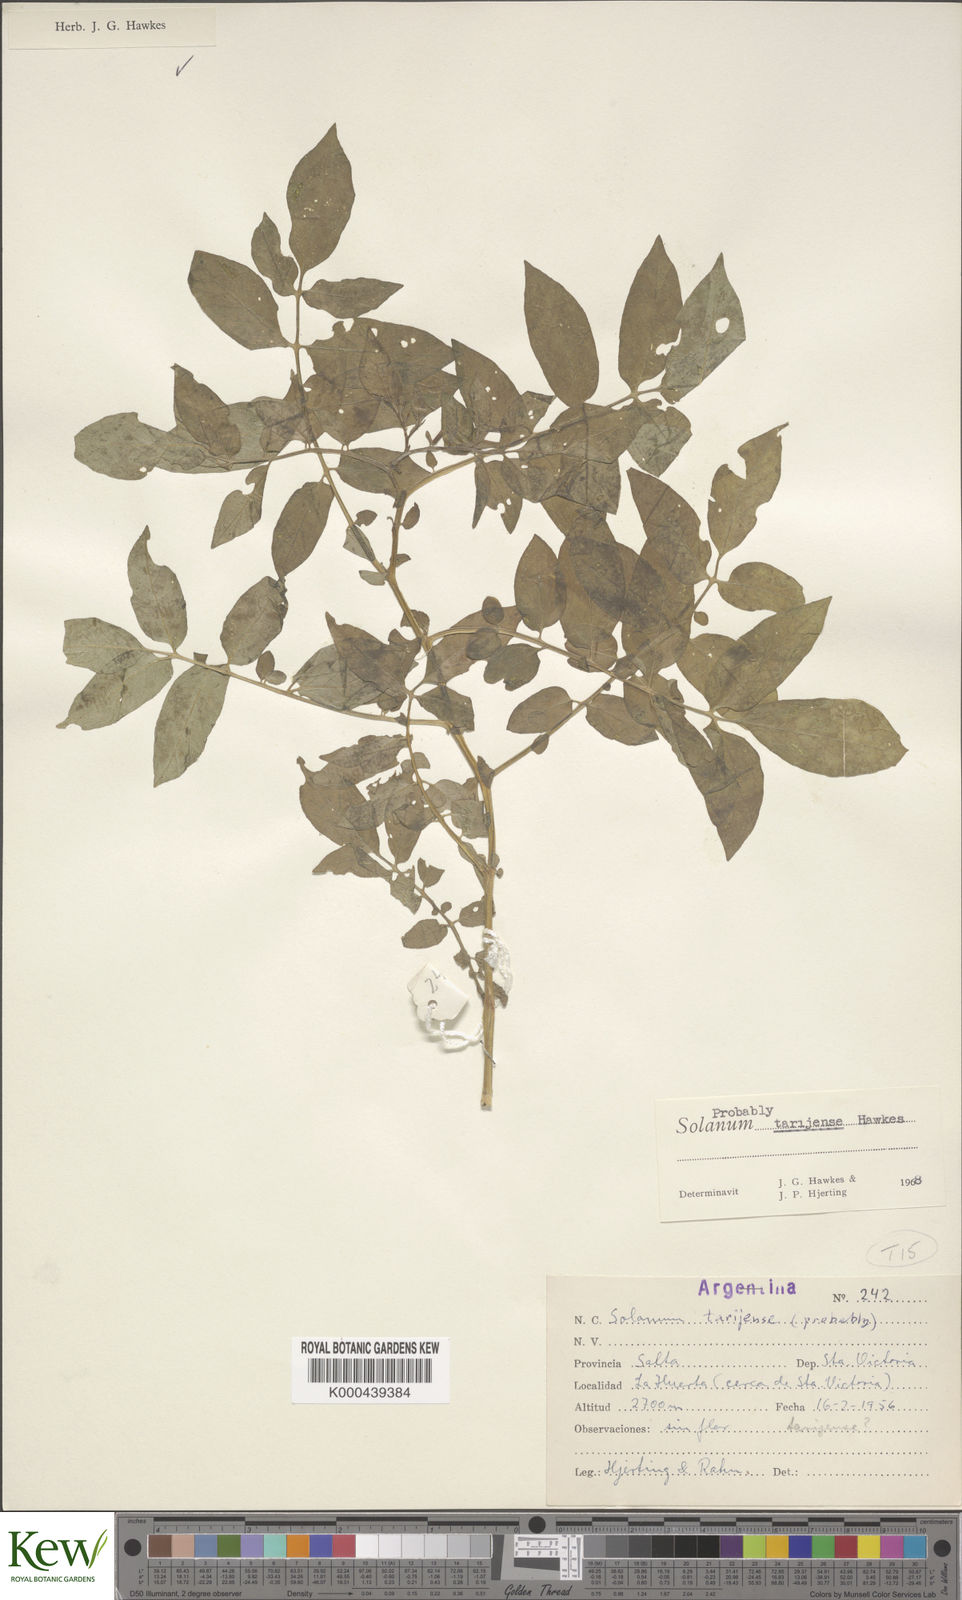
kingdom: Plantae
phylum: Tracheophyta
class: Magnoliopsida
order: Solanales
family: Solanaceae
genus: Solanum
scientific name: Solanum tarijense
